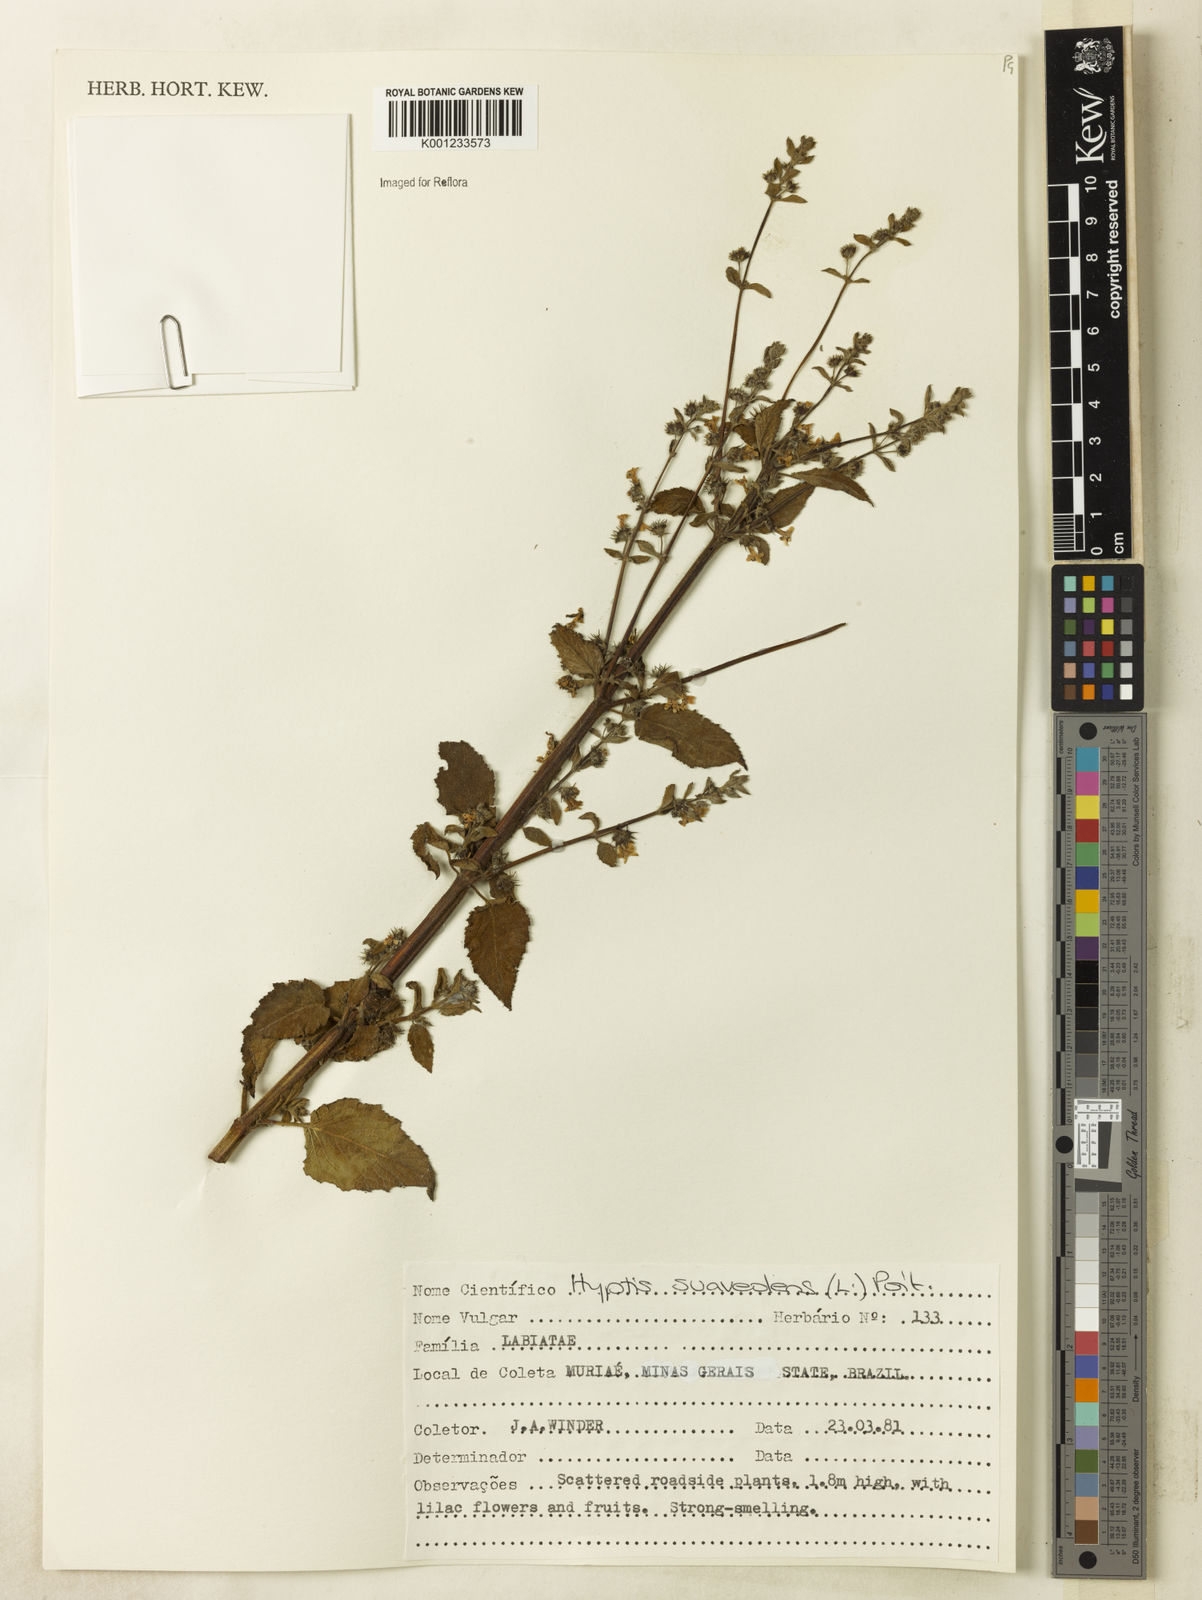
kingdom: Plantae
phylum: Tracheophyta
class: Magnoliopsida
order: Lamiales
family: Lamiaceae
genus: Mesosphaerum
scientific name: Mesosphaerum suaveolens
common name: Pignut
